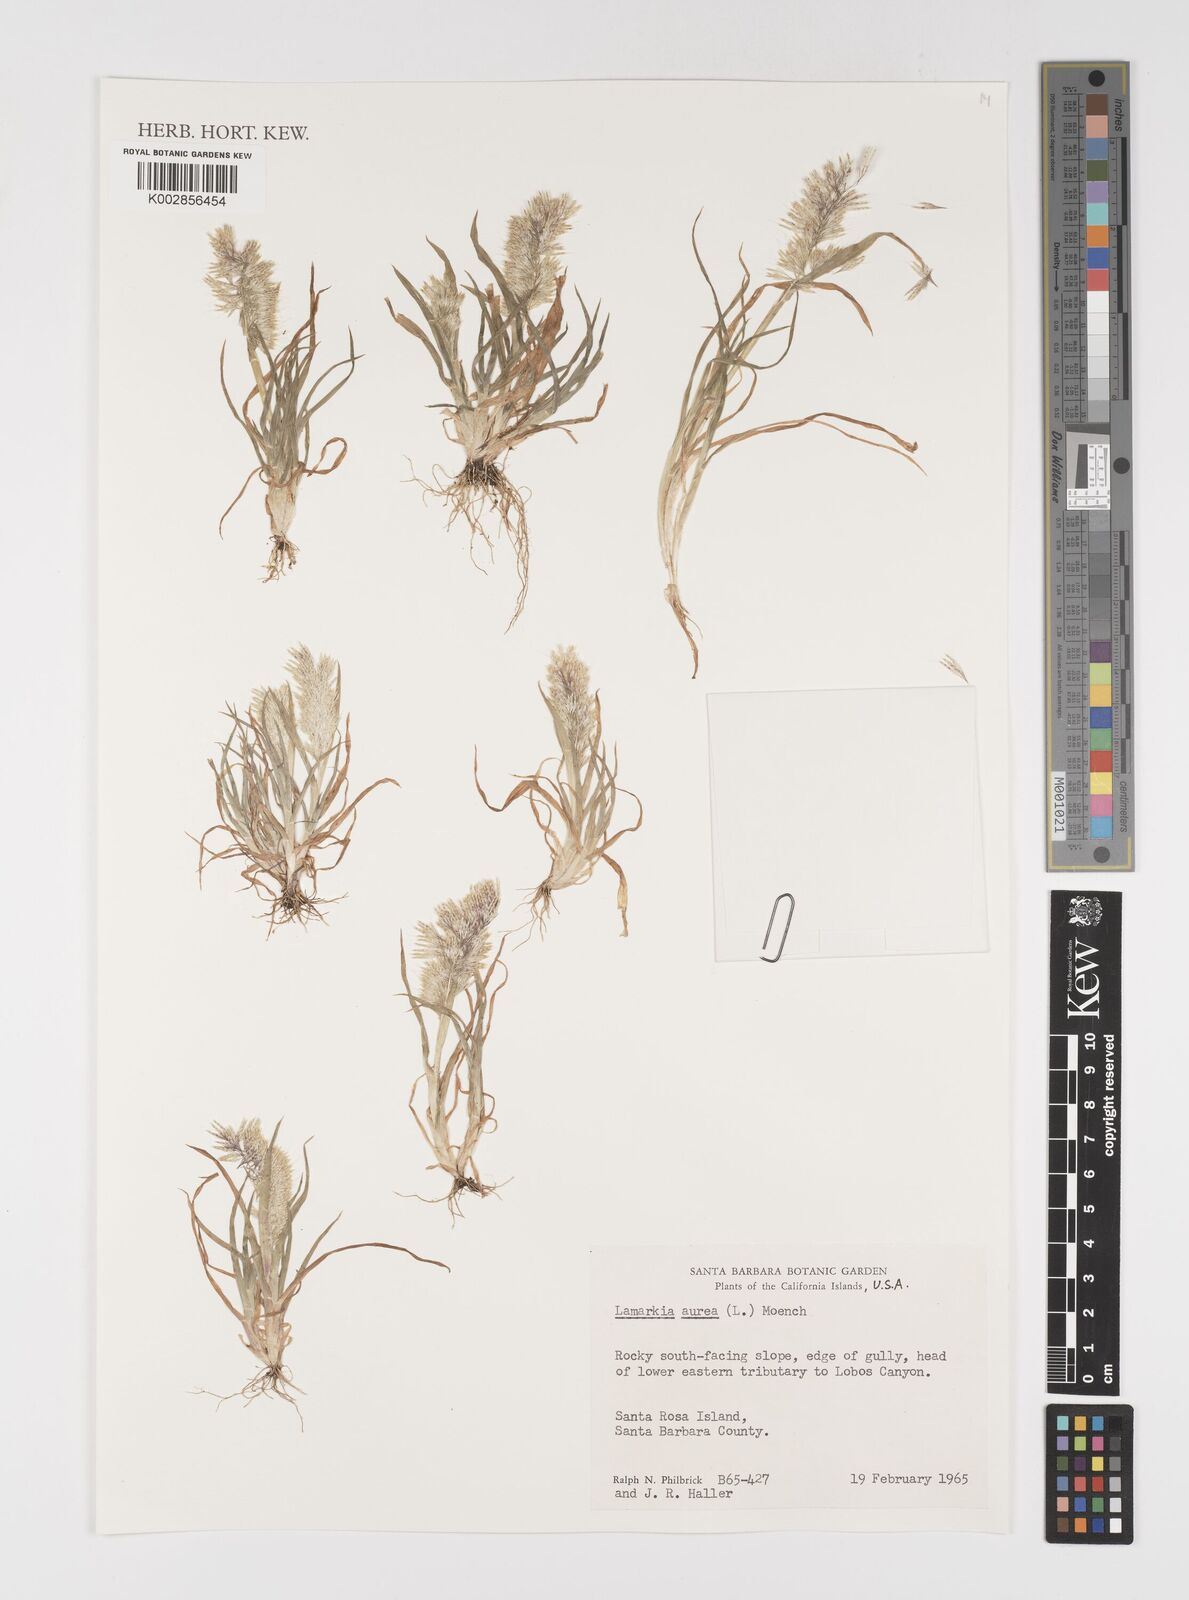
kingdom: Plantae
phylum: Tracheophyta
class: Liliopsida
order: Poales
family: Poaceae
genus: Lamarckia
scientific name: Lamarckia aurea
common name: Golden dog's-tail
